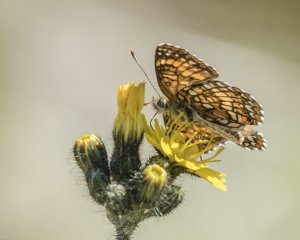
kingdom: Animalia
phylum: Arthropoda
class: Insecta
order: Lepidoptera
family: Nymphalidae
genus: Chlosyne
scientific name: Chlosyne harrisii
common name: Harris's Checkerspot
